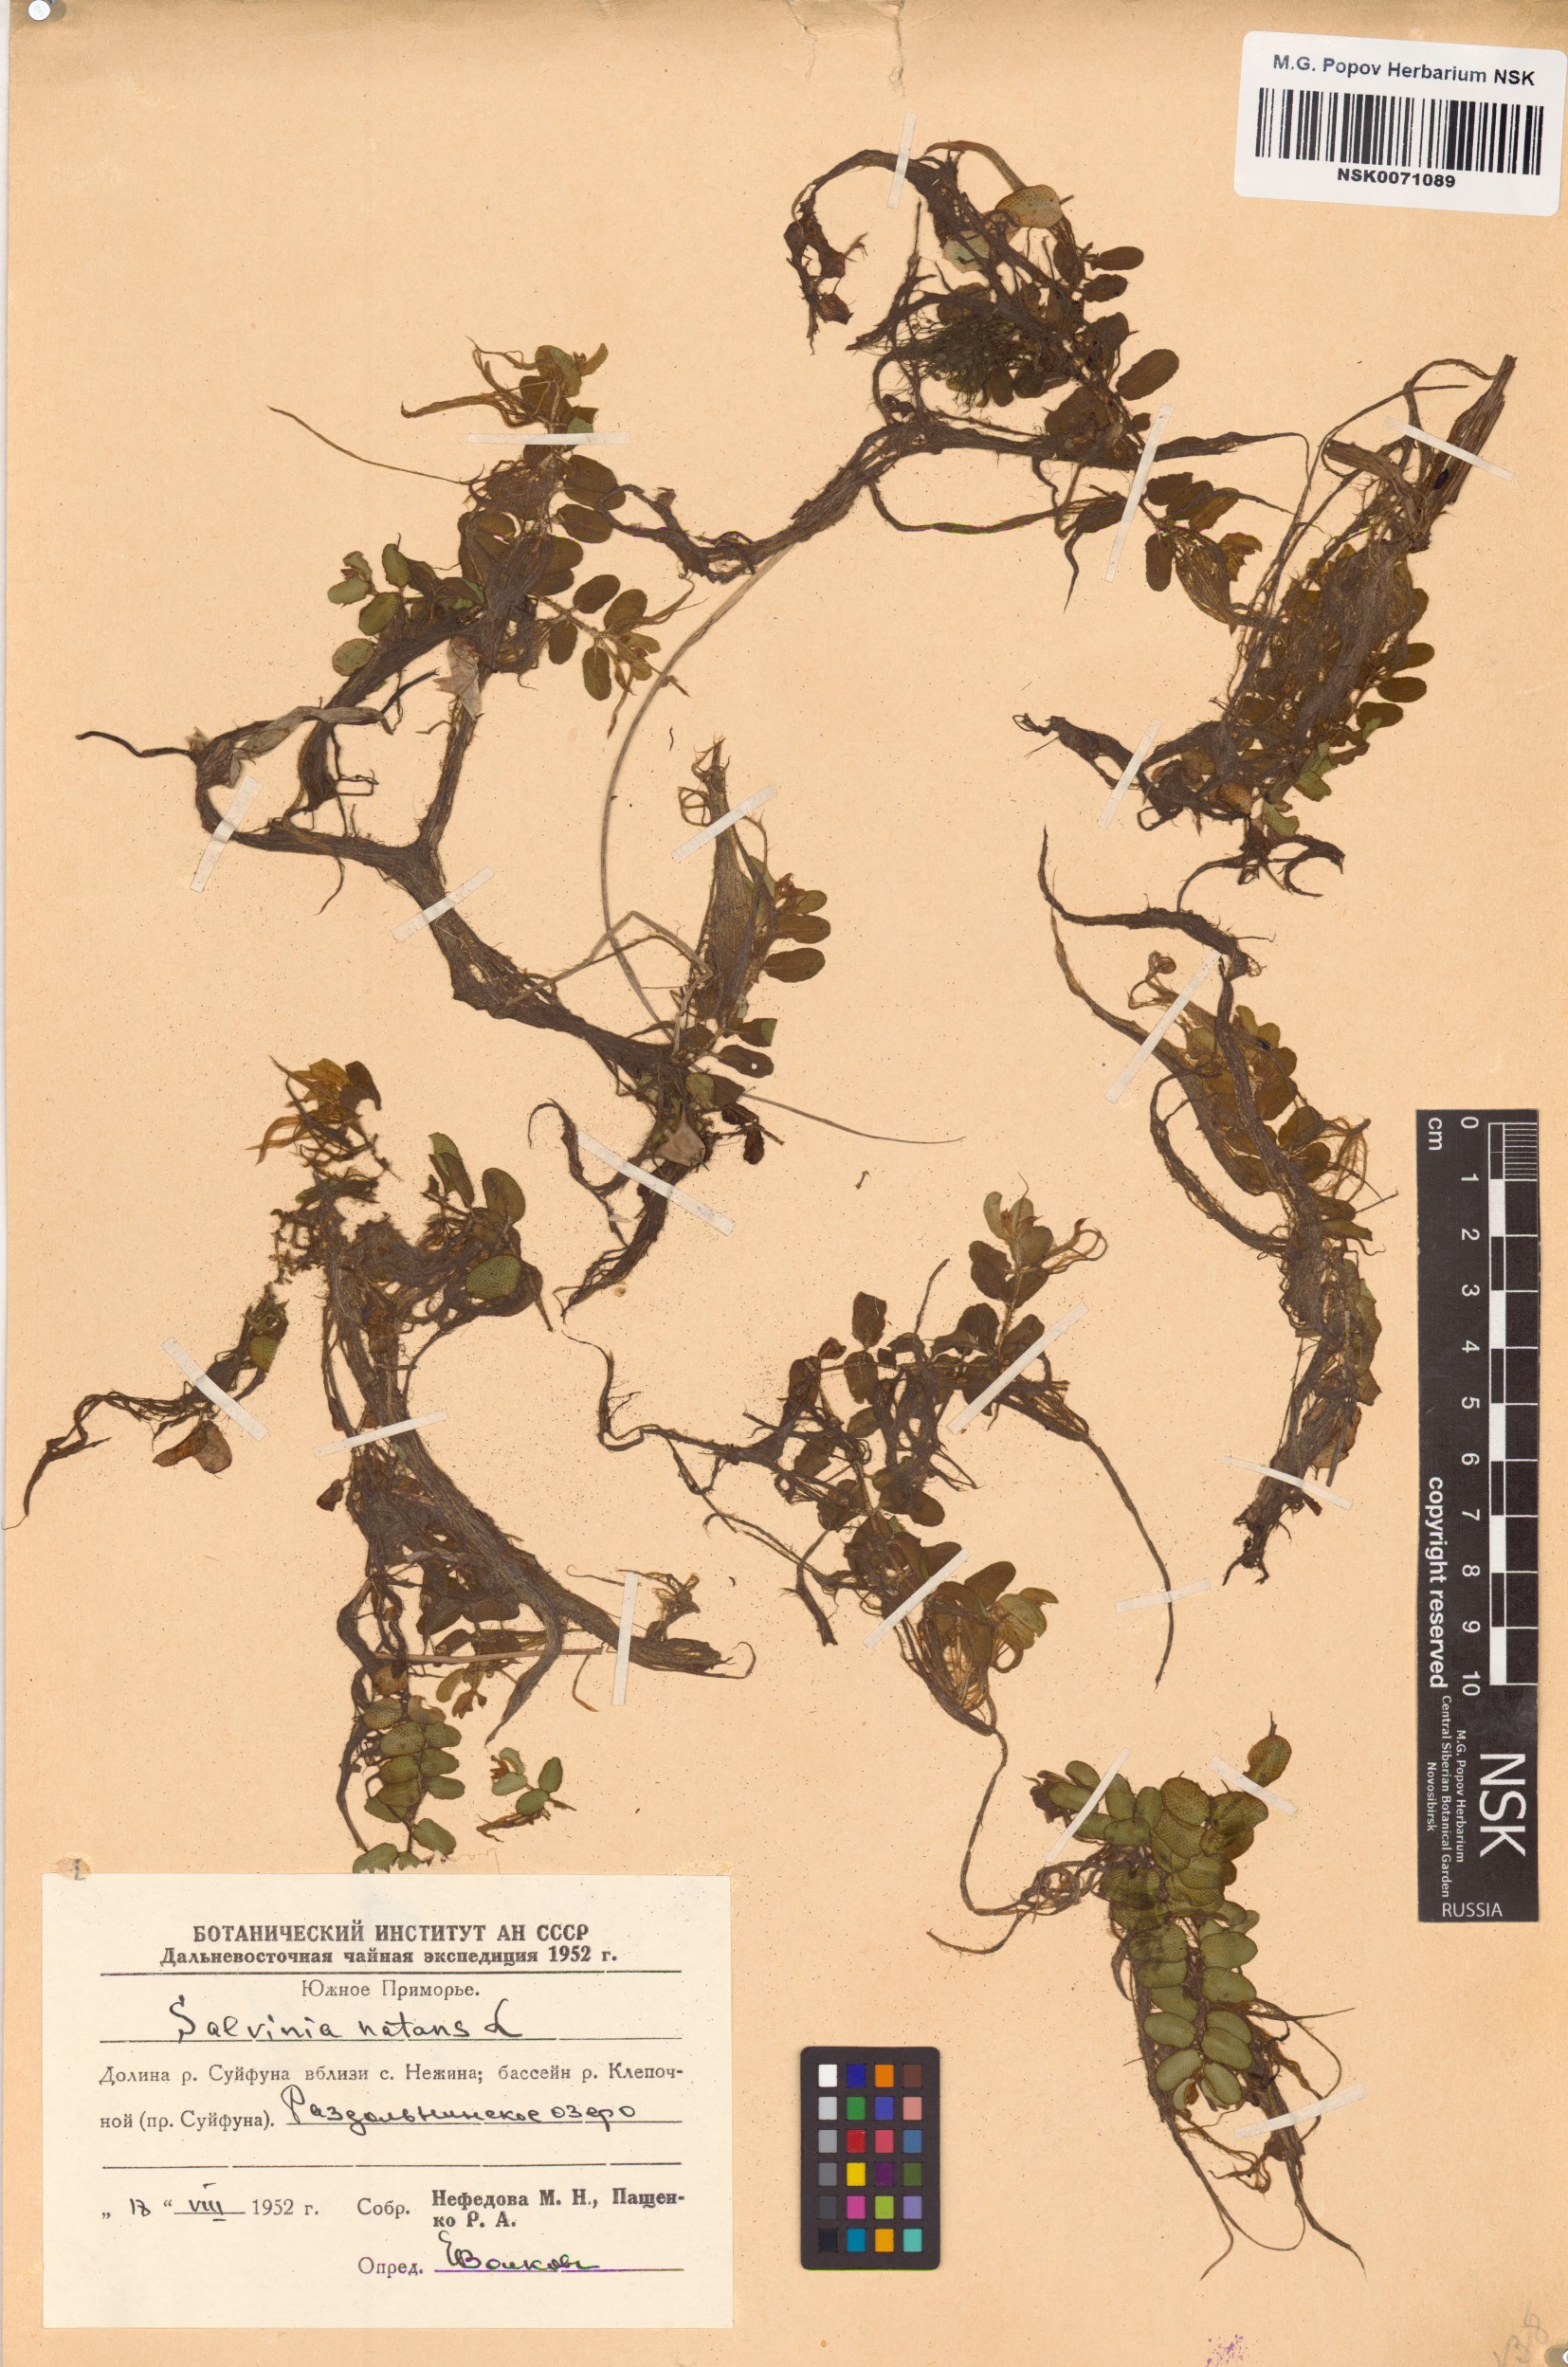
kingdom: Plantae
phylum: Tracheophyta
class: Polypodiopsida
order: Salviniales
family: Salviniaceae
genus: Salvinia
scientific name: Salvinia natans
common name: Floating fern
